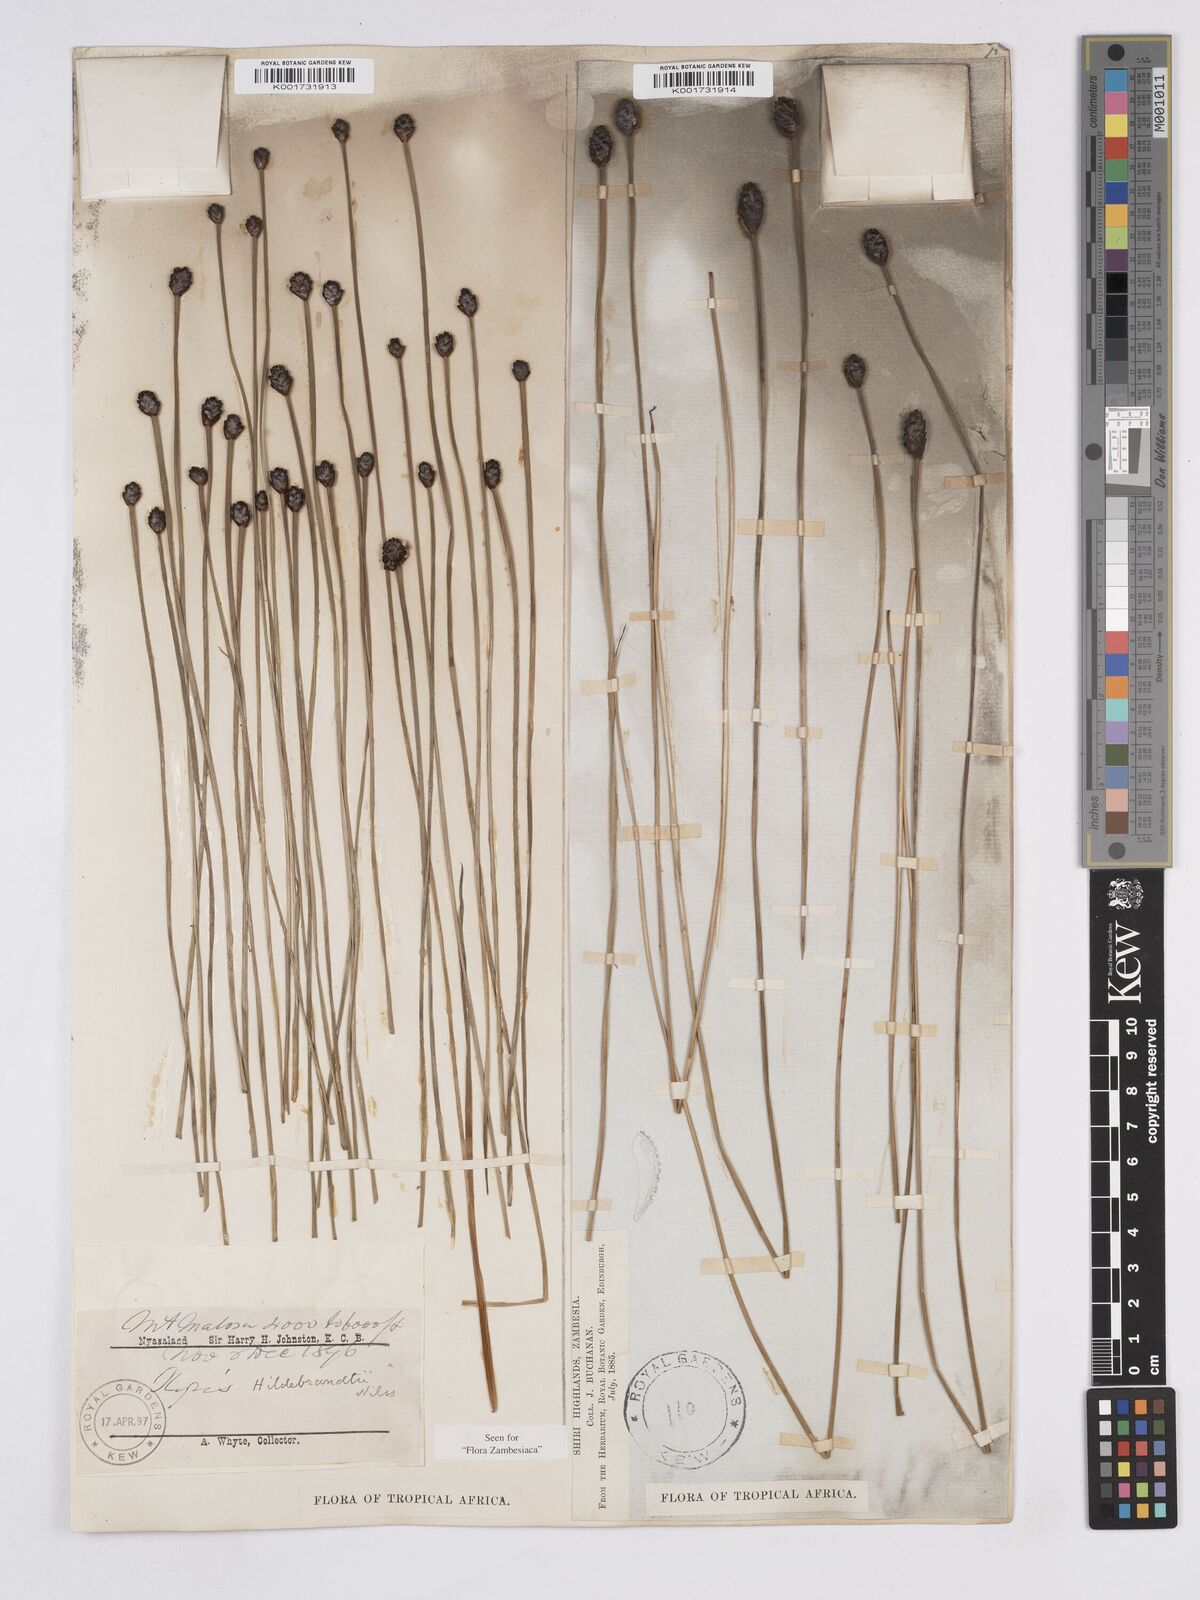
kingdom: Plantae
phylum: Tracheophyta
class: Liliopsida
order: Poales
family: Xyridaceae
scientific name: Xyridaceae
